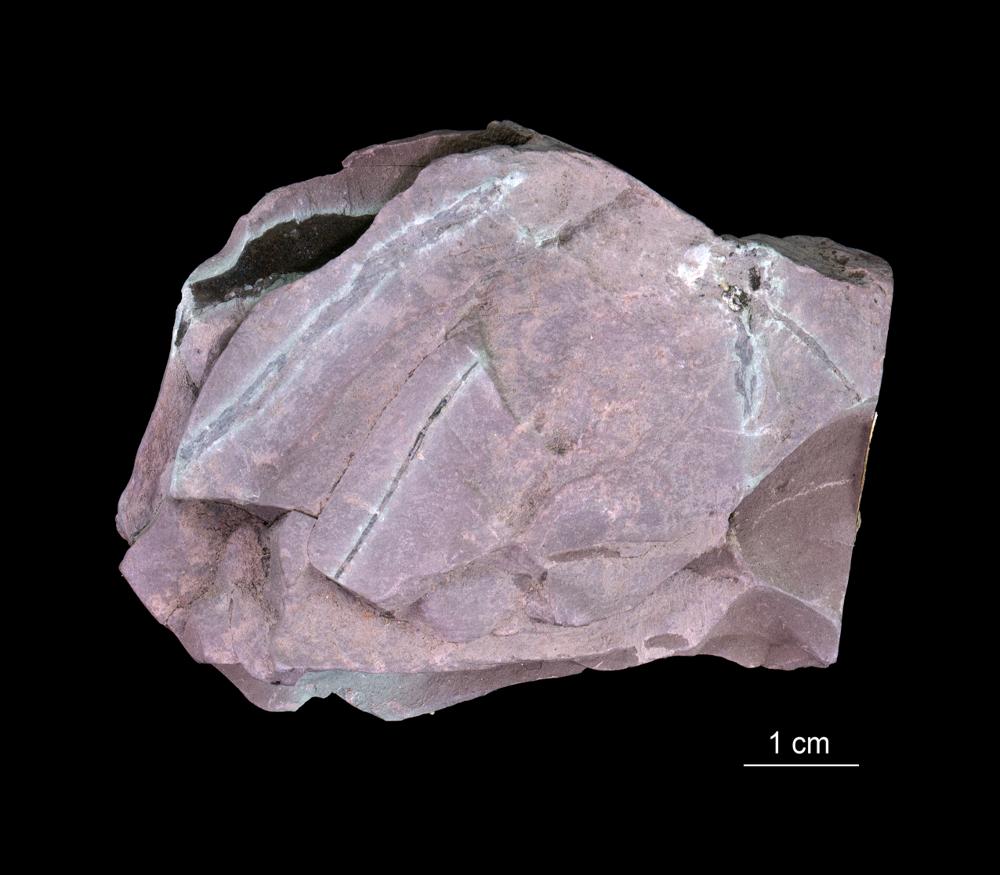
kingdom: Chromista
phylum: Foraminifera
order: Astrorhizida
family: Hyperamminidae
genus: Platysolenites
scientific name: Platysolenites
